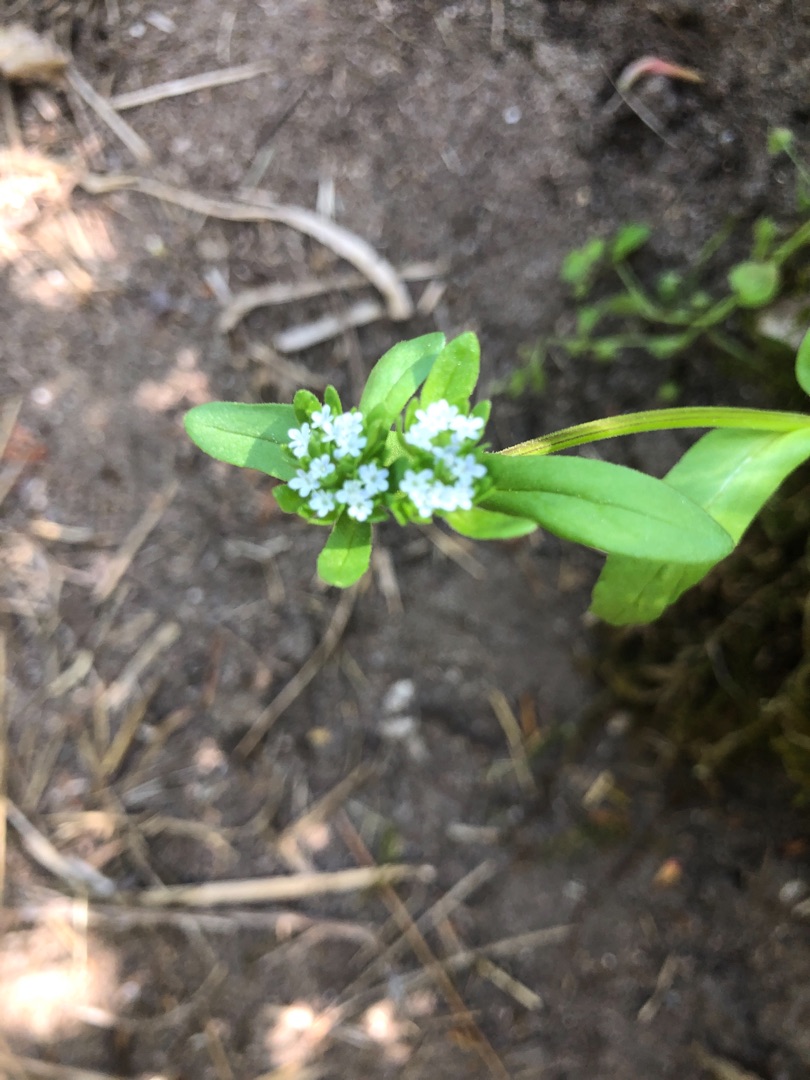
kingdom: Plantae
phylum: Tracheophyta
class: Magnoliopsida
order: Dipsacales
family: Caprifoliaceae
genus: Valerianella
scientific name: Valerianella locusta
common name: Tandfri vårsalat
